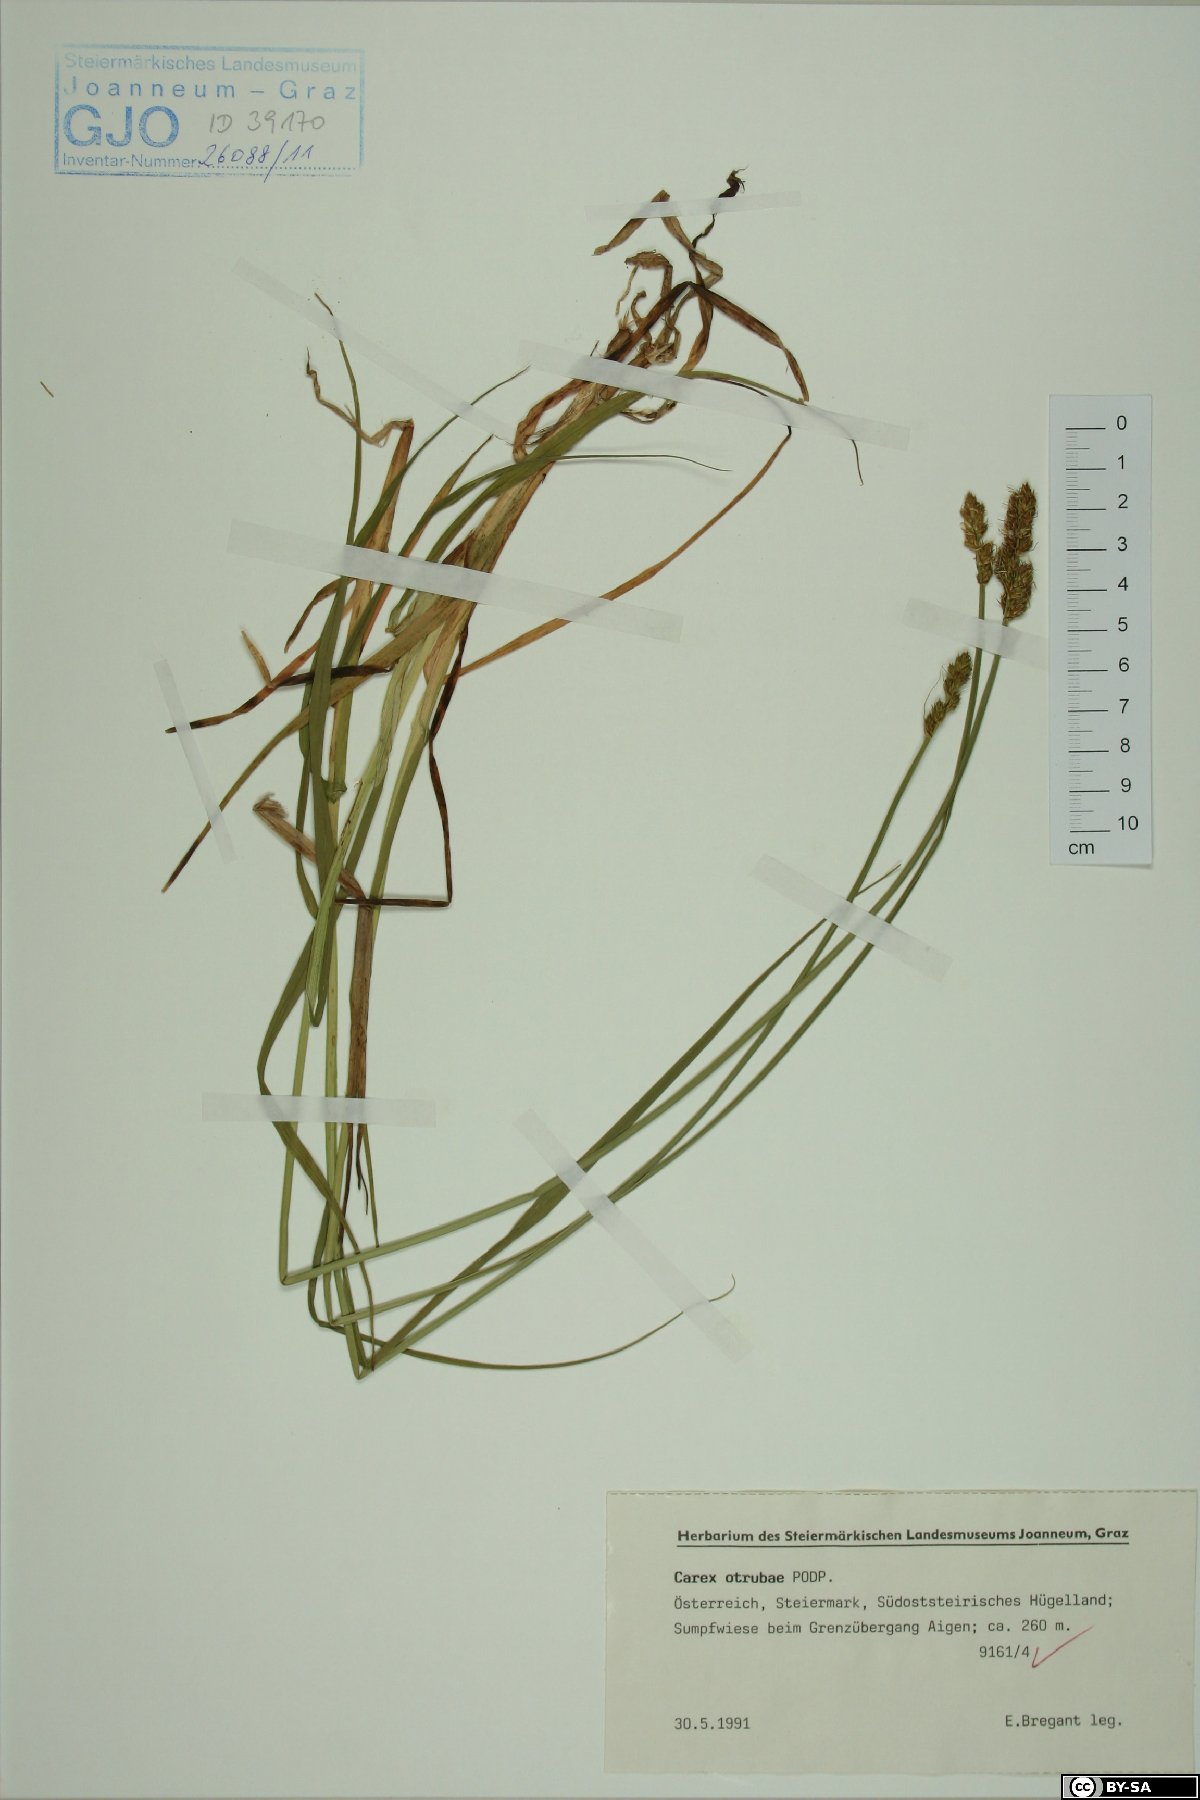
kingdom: Plantae
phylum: Tracheophyta
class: Liliopsida
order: Poales
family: Cyperaceae
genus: Carex
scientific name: Carex otrubae
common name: False fox-sedge
